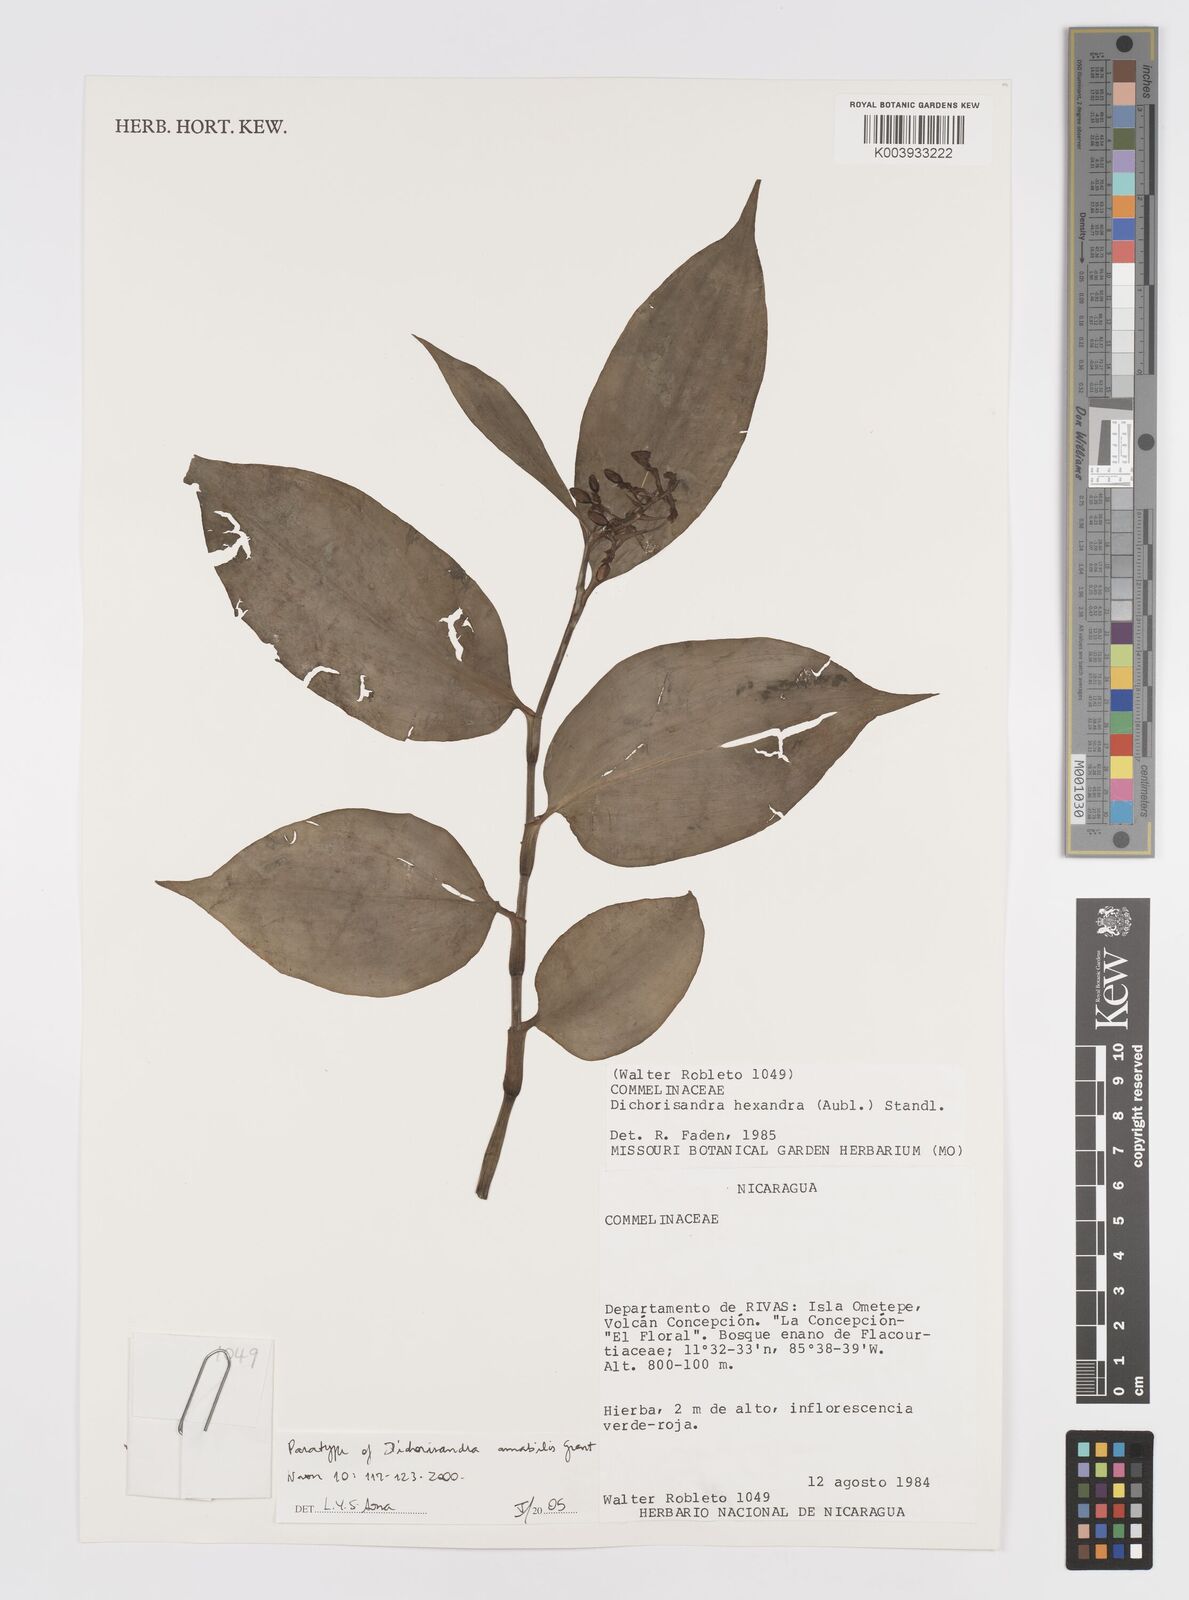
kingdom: Plantae
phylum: Tracheophyta
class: Liliopsida
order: Commelinales
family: Commelinaceae
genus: Dichorisandra
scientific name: Dichorisandra amabilis
